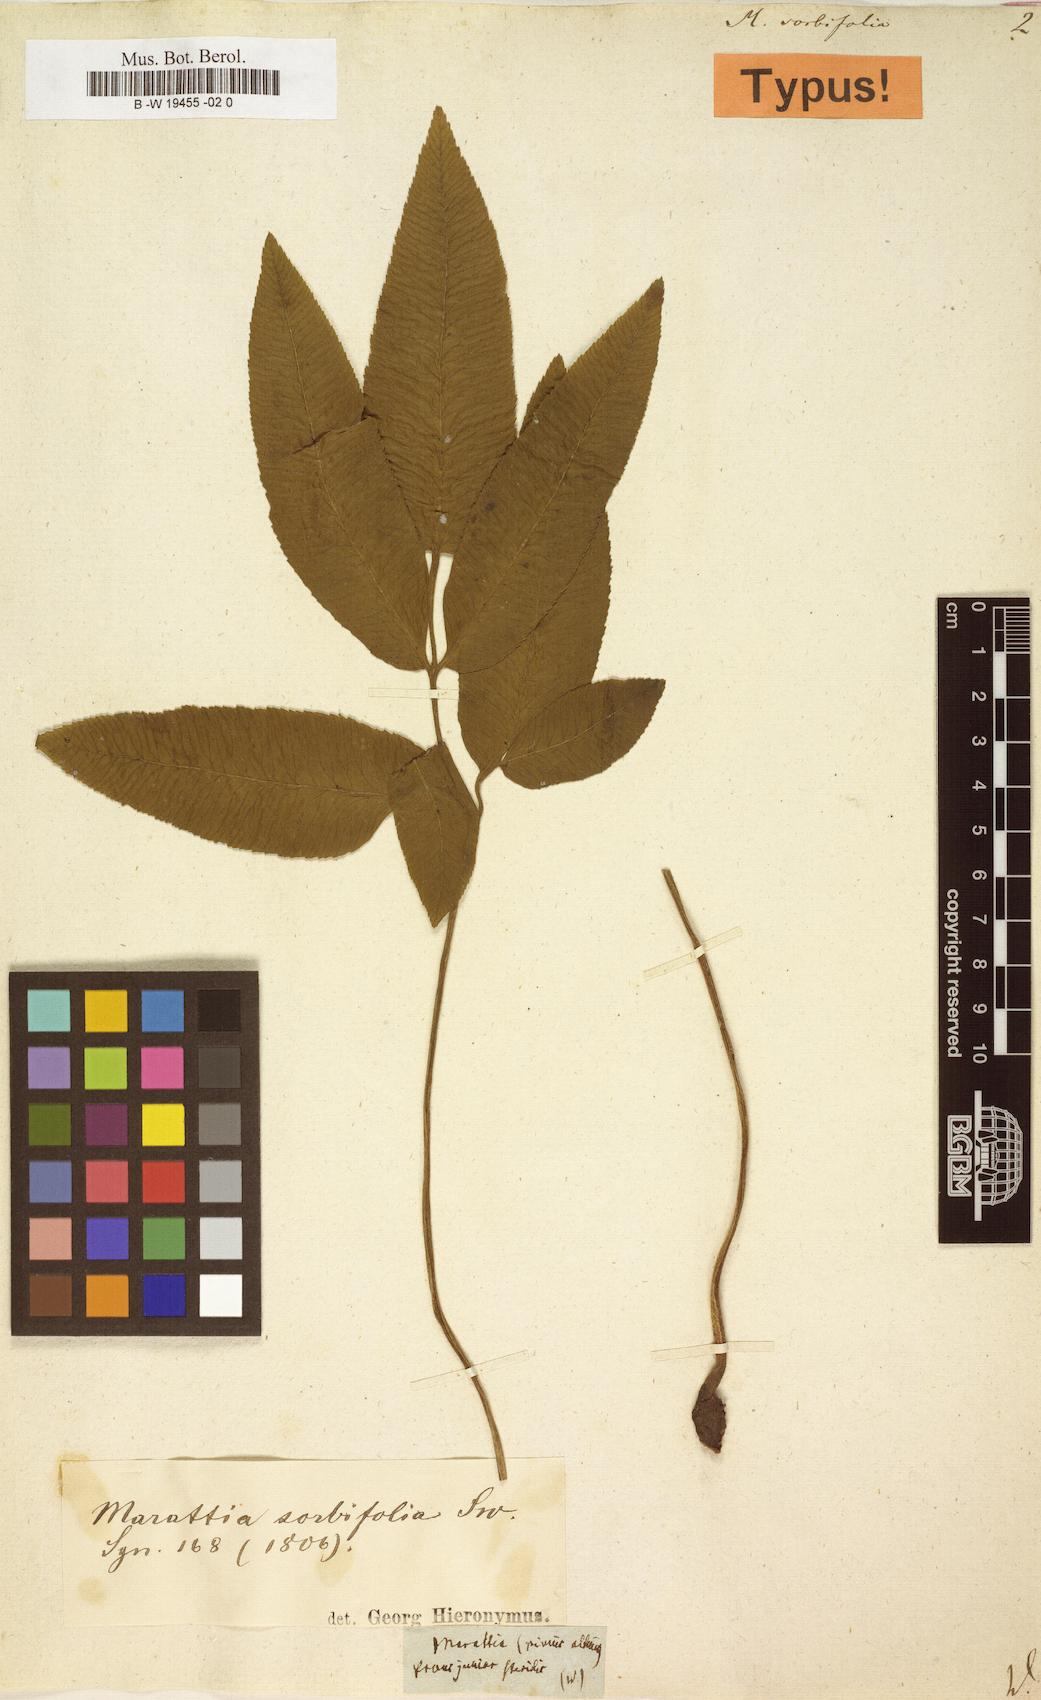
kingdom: Plantae
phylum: Tracheophyta
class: Polypodiopsida
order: Marattiales
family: Marattiaceae
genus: Ptisana
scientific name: Ptisana
